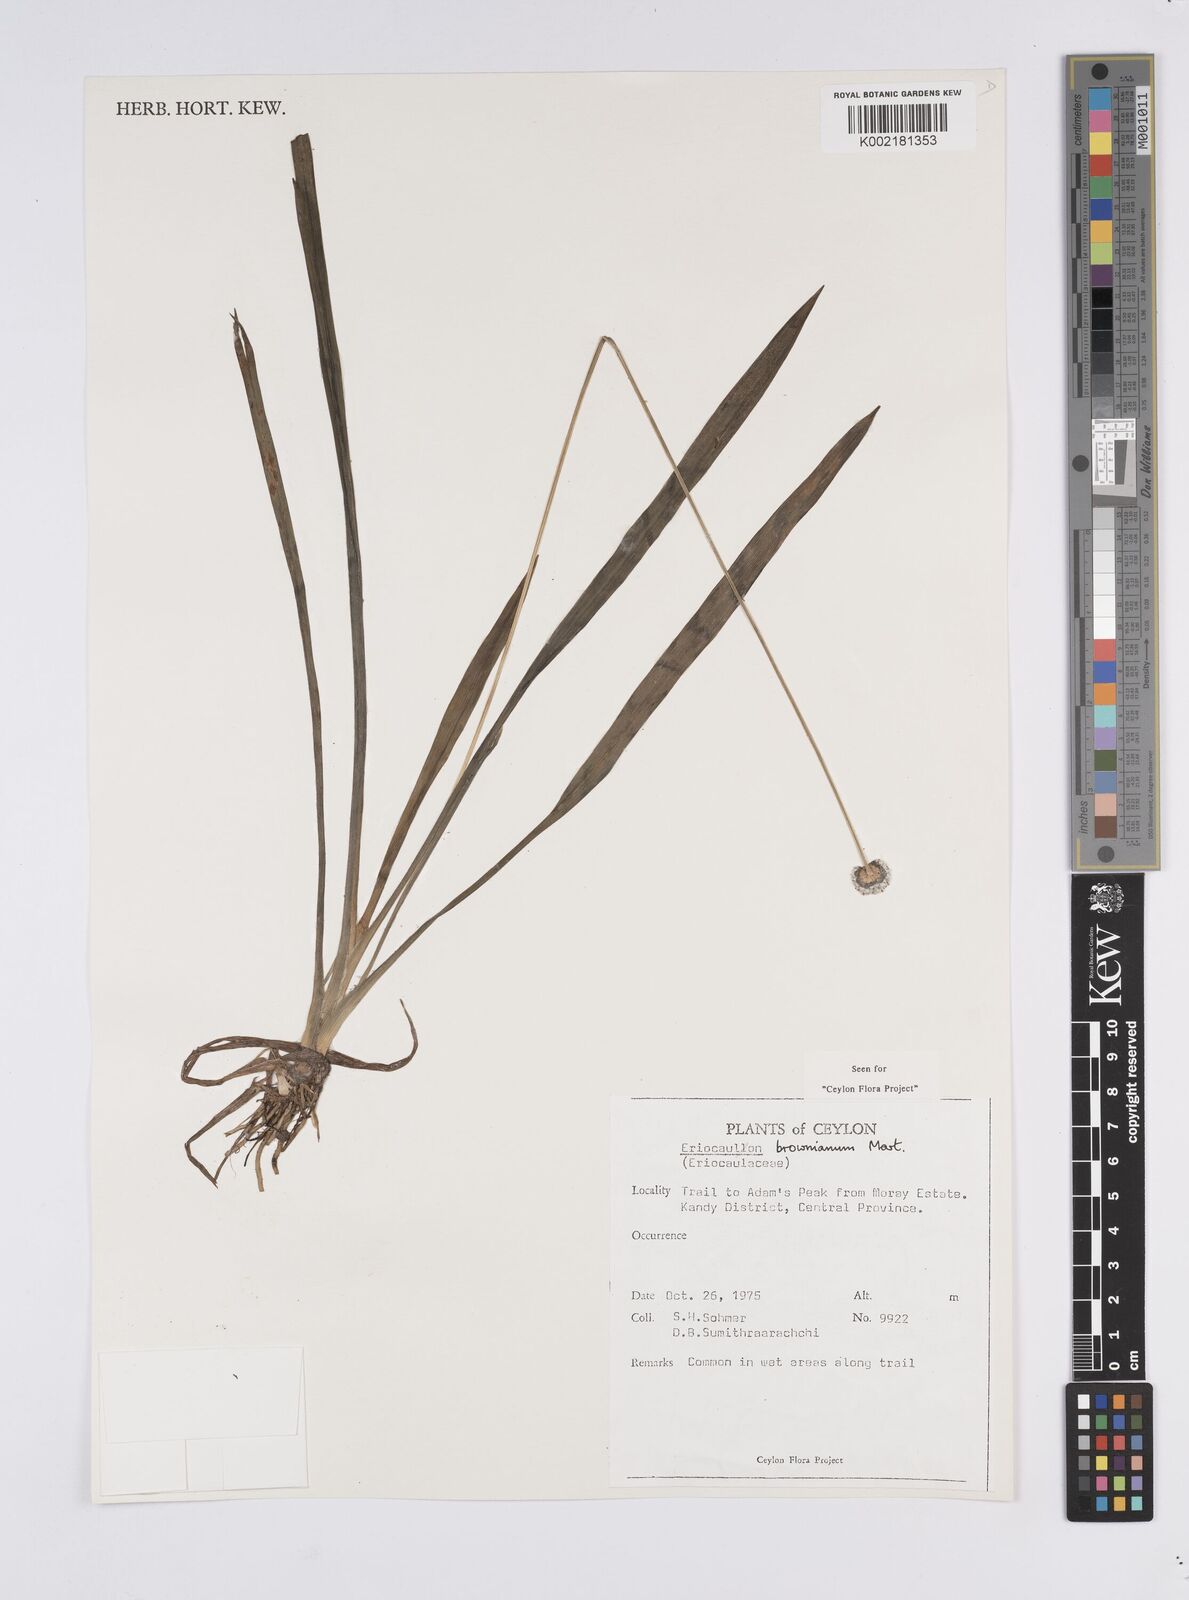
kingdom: Plantae
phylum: Tracheophyta
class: Liliopsida
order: Poales
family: Eriocaulaceae
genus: Eriocaulon
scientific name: Eriocaulon brownianum
